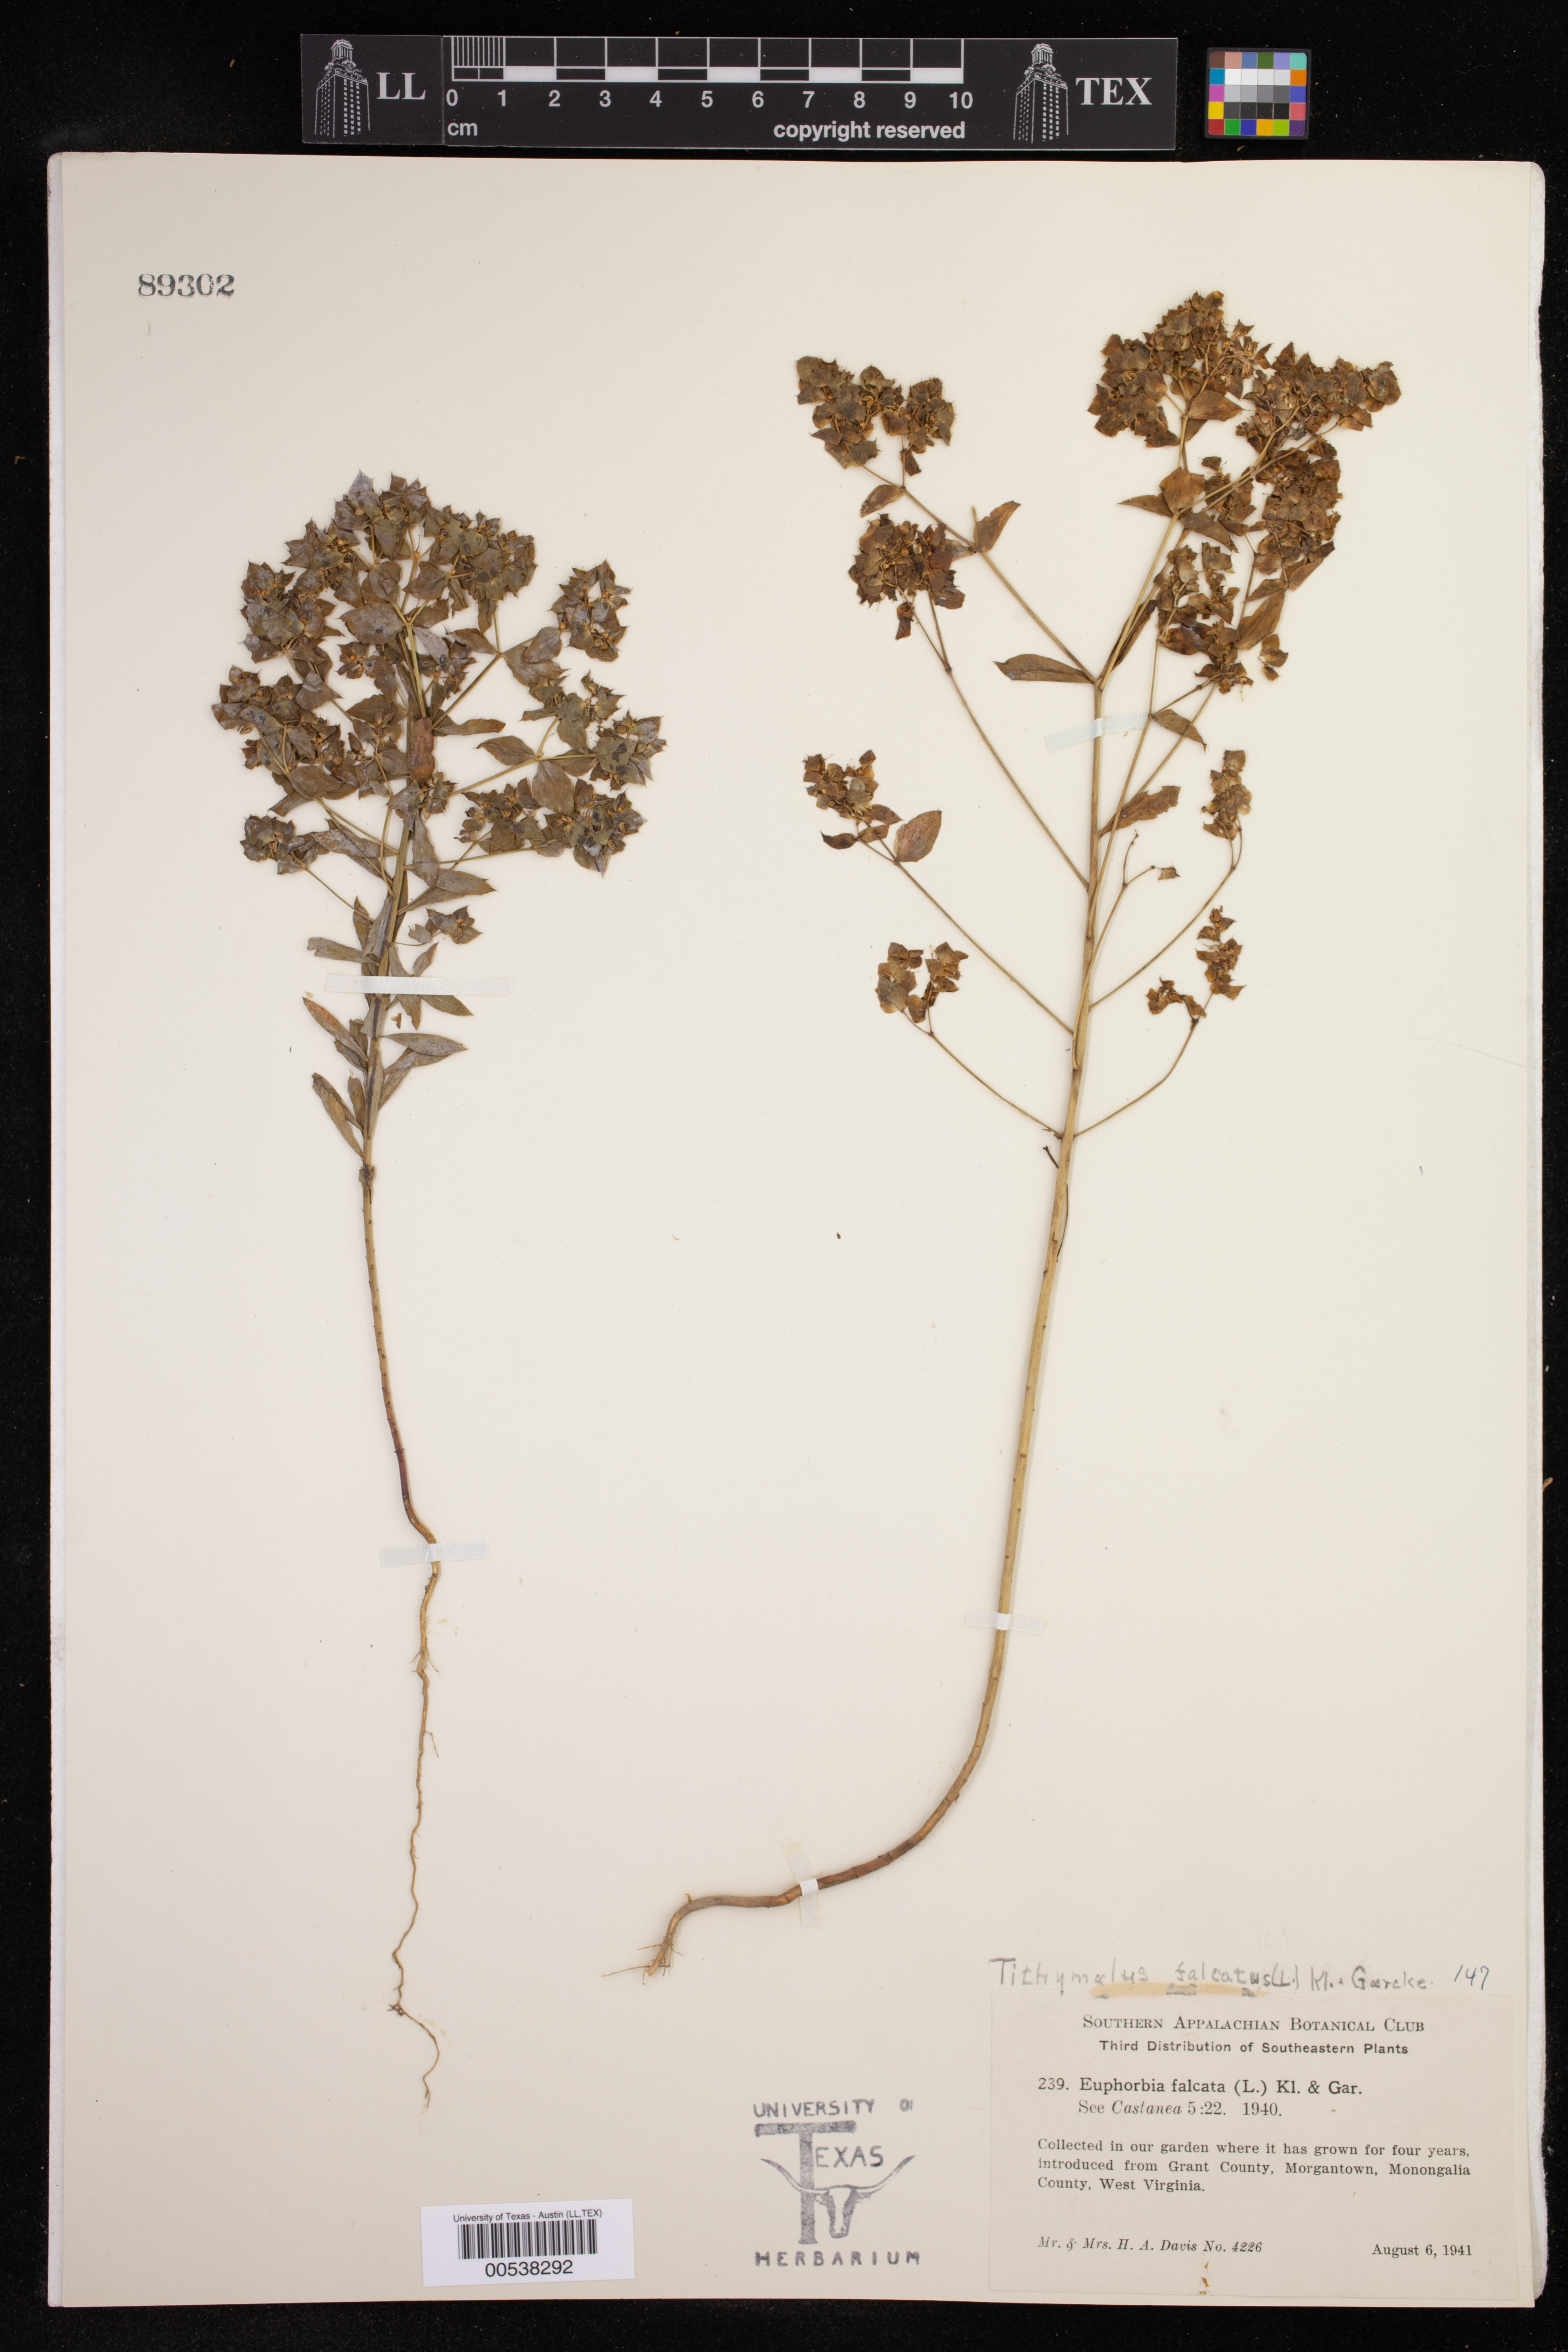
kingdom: Plantae
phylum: Tracheophyta
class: Magnoliopsida
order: Malpighiales
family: Euphorbiaceae
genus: Euphorbia
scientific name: Euphorbia falcata
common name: Sickle spurge
